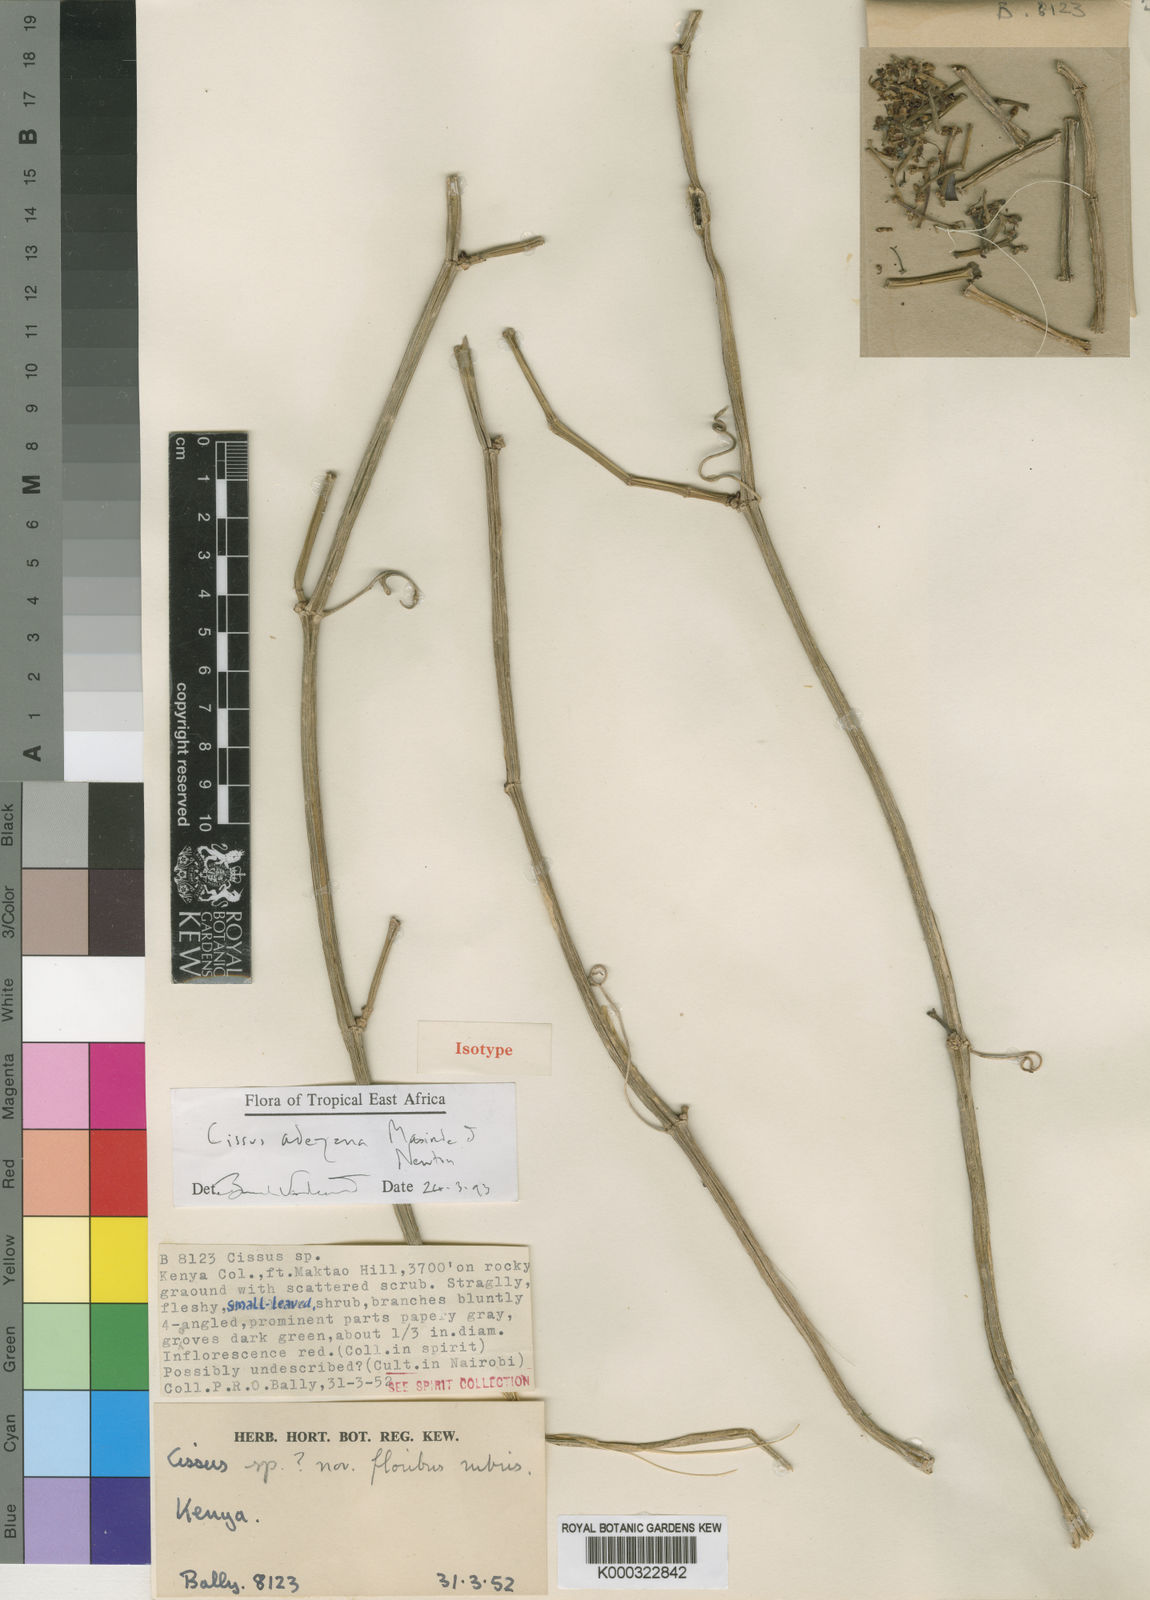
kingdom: Plantae
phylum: Tracheophyta
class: Magnoliopsida
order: Vitales
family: Vitaceae
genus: Cissus
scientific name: Cissus adeyana
